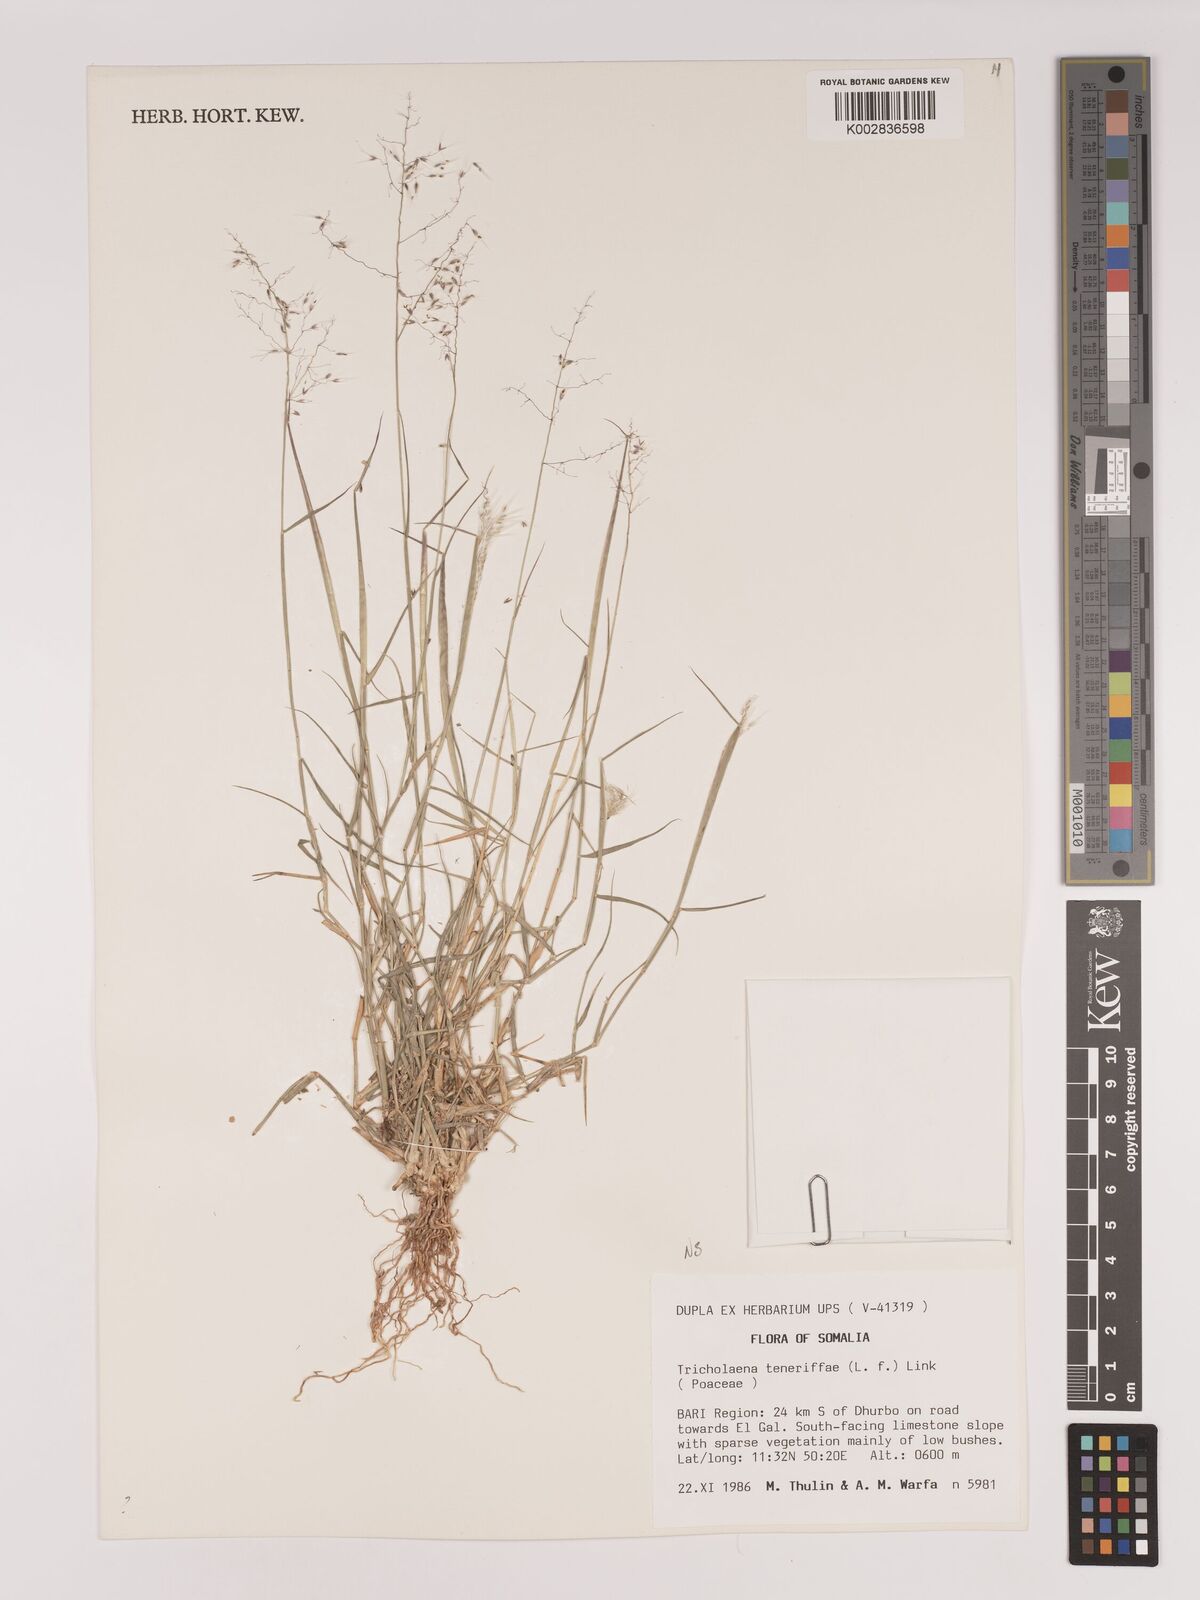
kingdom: Plantae
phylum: Tracheophyta
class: Liliopsida
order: Poales
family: Poaceae
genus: Tricholaena
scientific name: Tricholaena teneriffae
